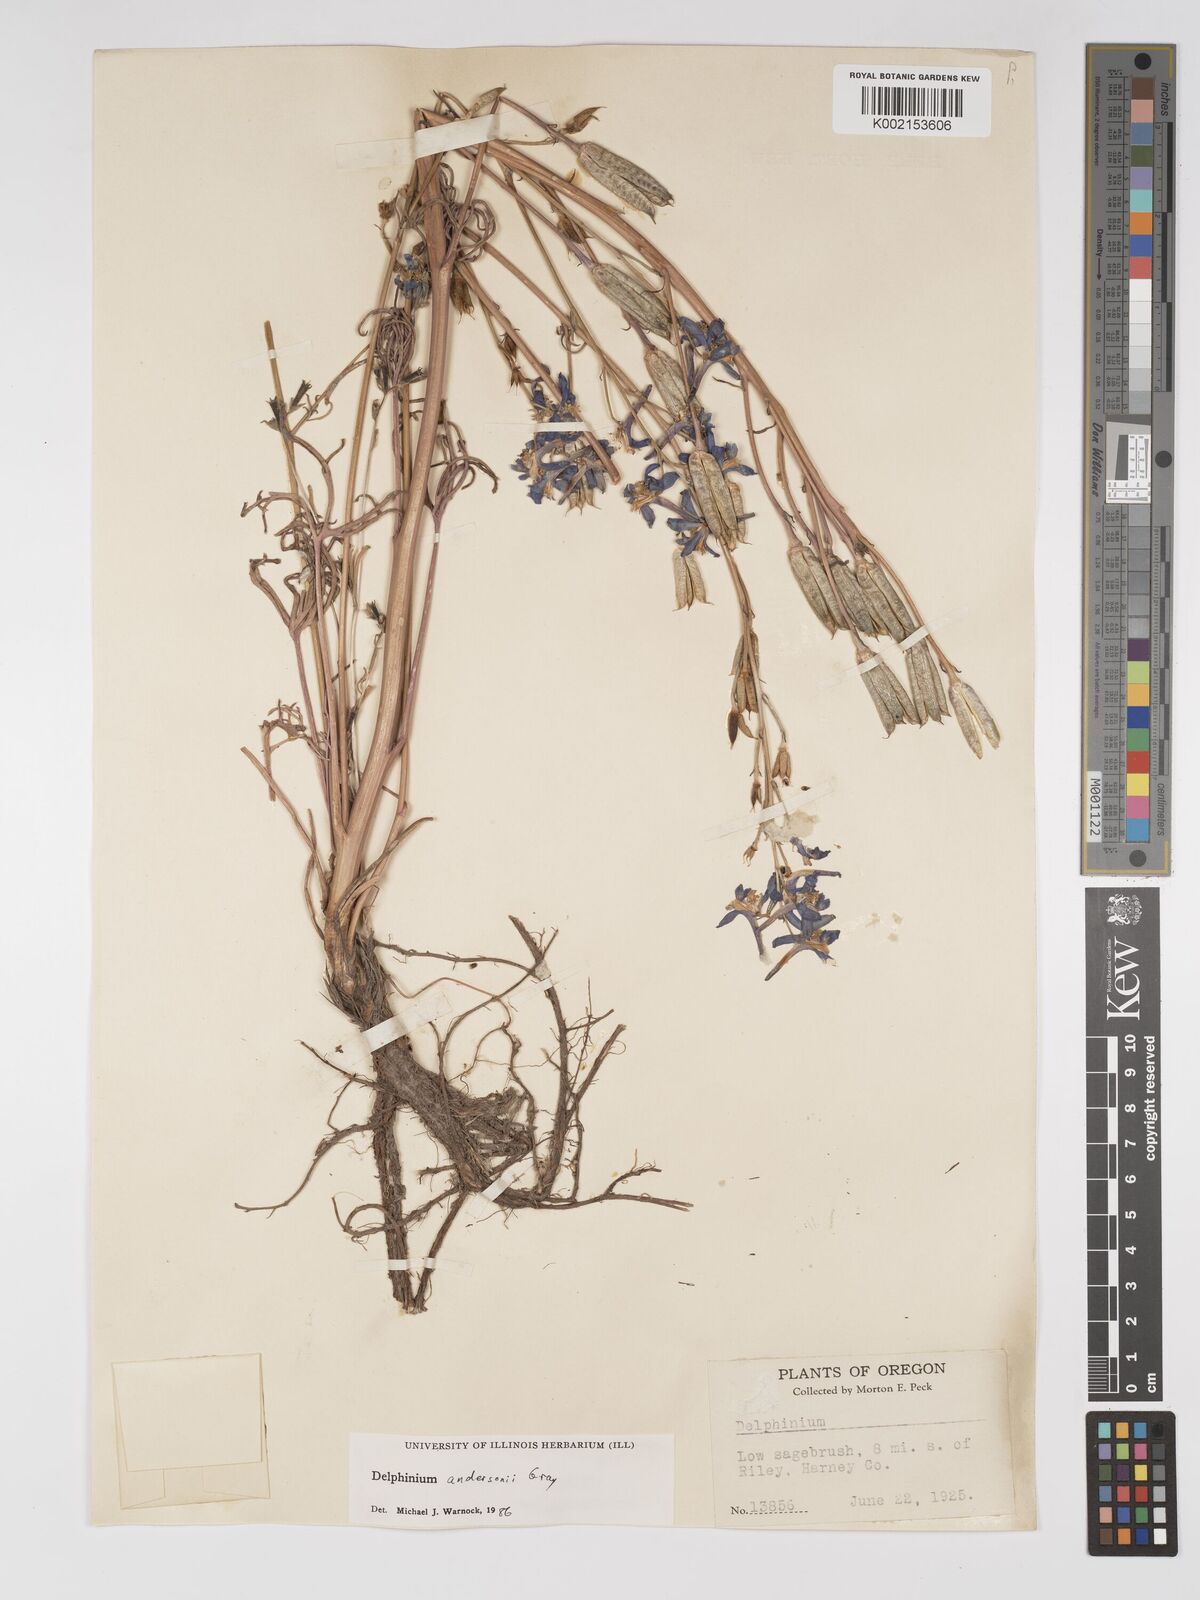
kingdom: Plantae
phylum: Tracheophyta
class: Magnoliopsida
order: Ranunculales
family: Ranunculaceae
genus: Delphinium
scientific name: Delphinium andersonii
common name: Anderson's larkspur
